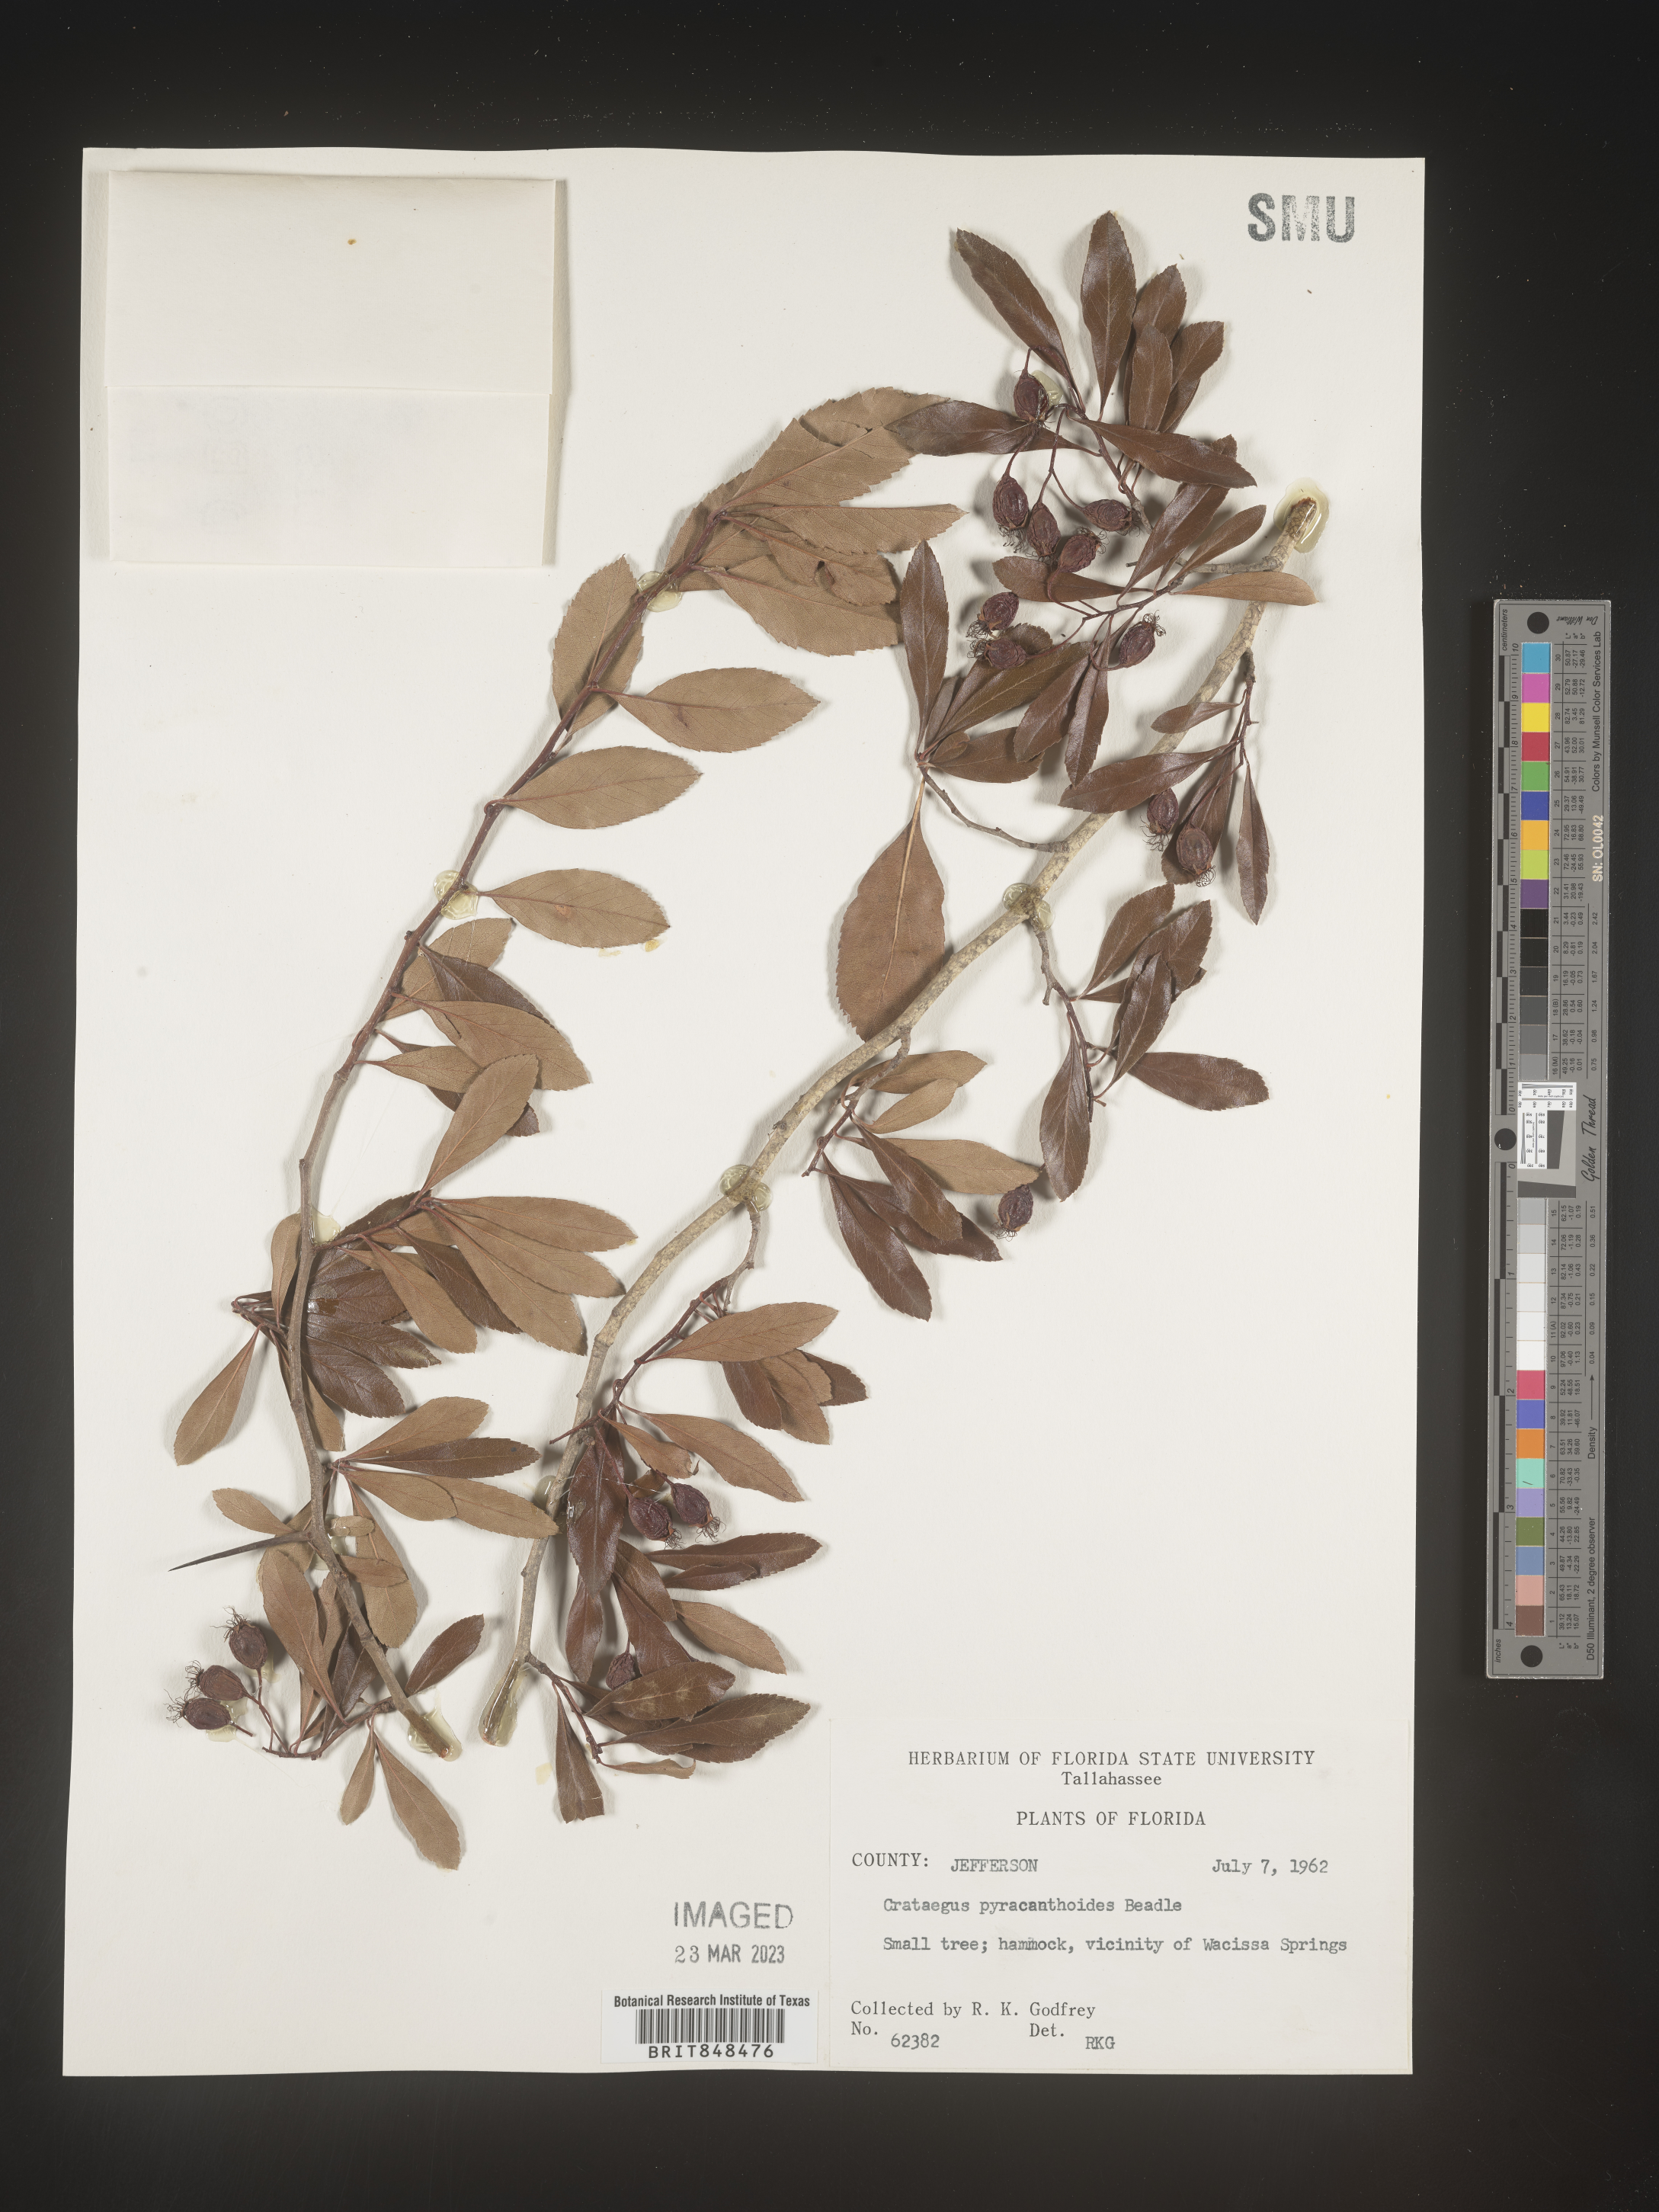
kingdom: Plantae
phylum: Tracheophyta
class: Magnoliopsida
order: Rosales
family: Rosaceae
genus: Aronia
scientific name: Aronia arbutifolia
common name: Red chokeberry
